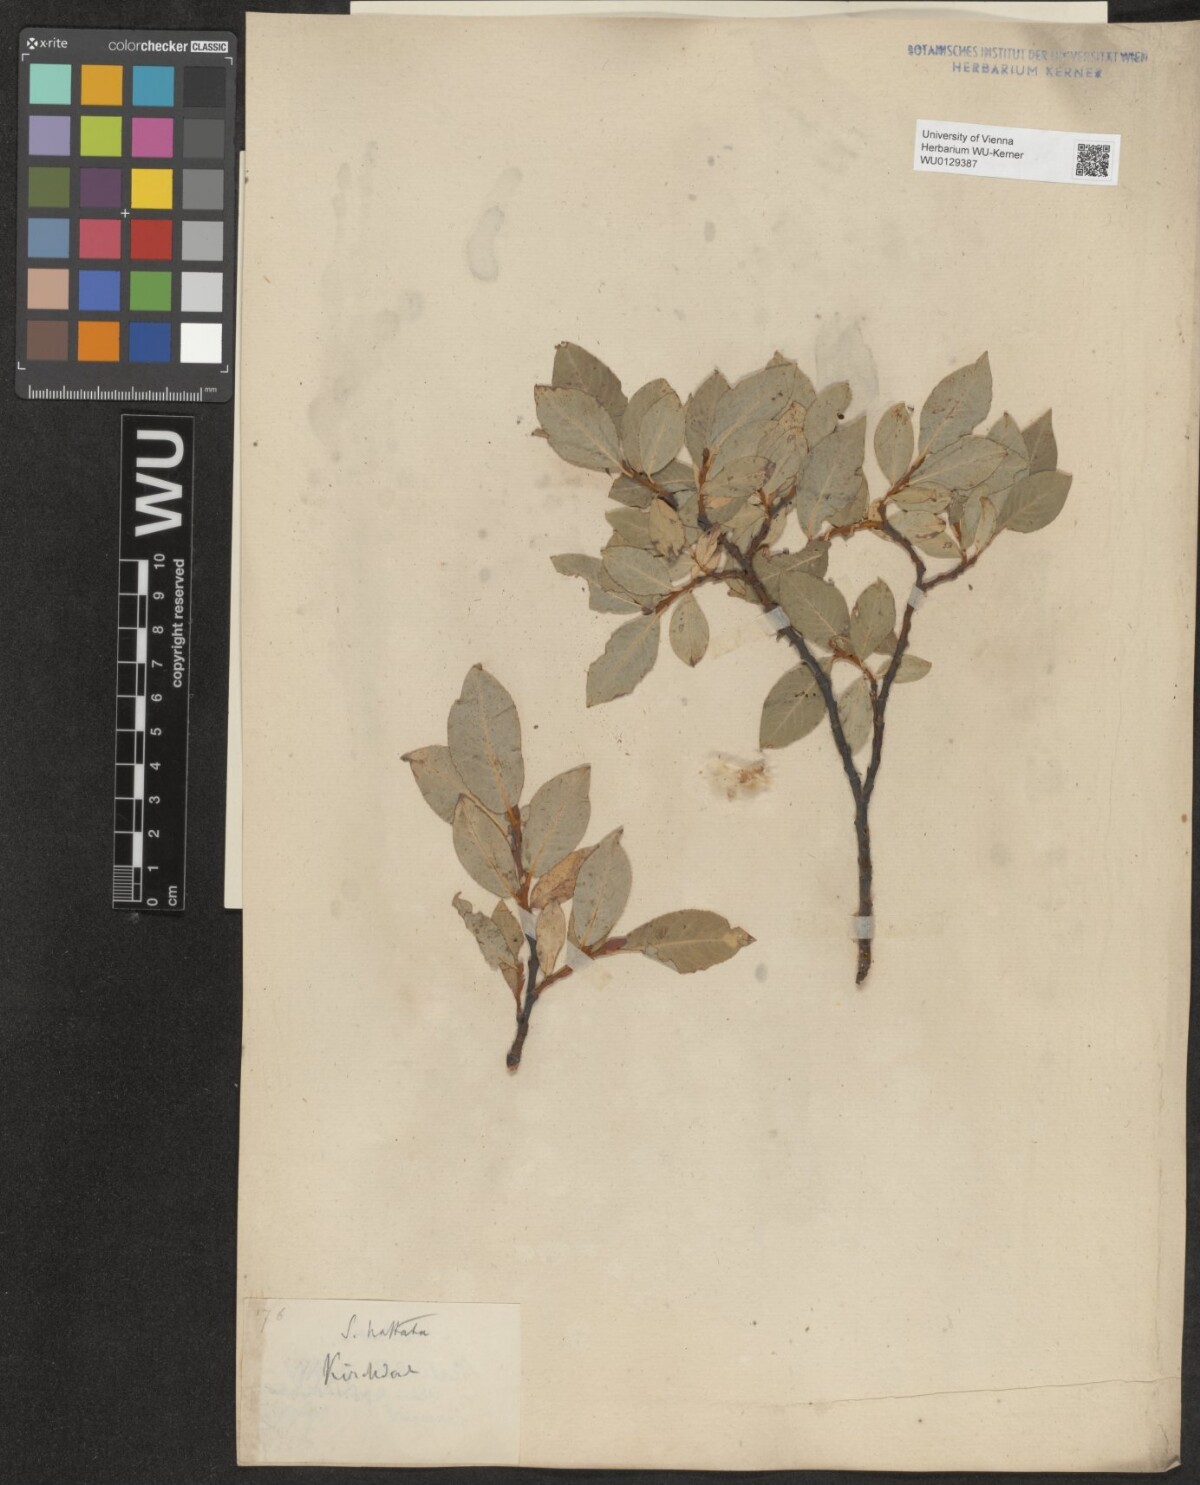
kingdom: Plantae
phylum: Tracheophyta
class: Magnoliopsida
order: Malpighiales
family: Salicaceae
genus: Salix
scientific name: Salix hastata
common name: Halberd willow
